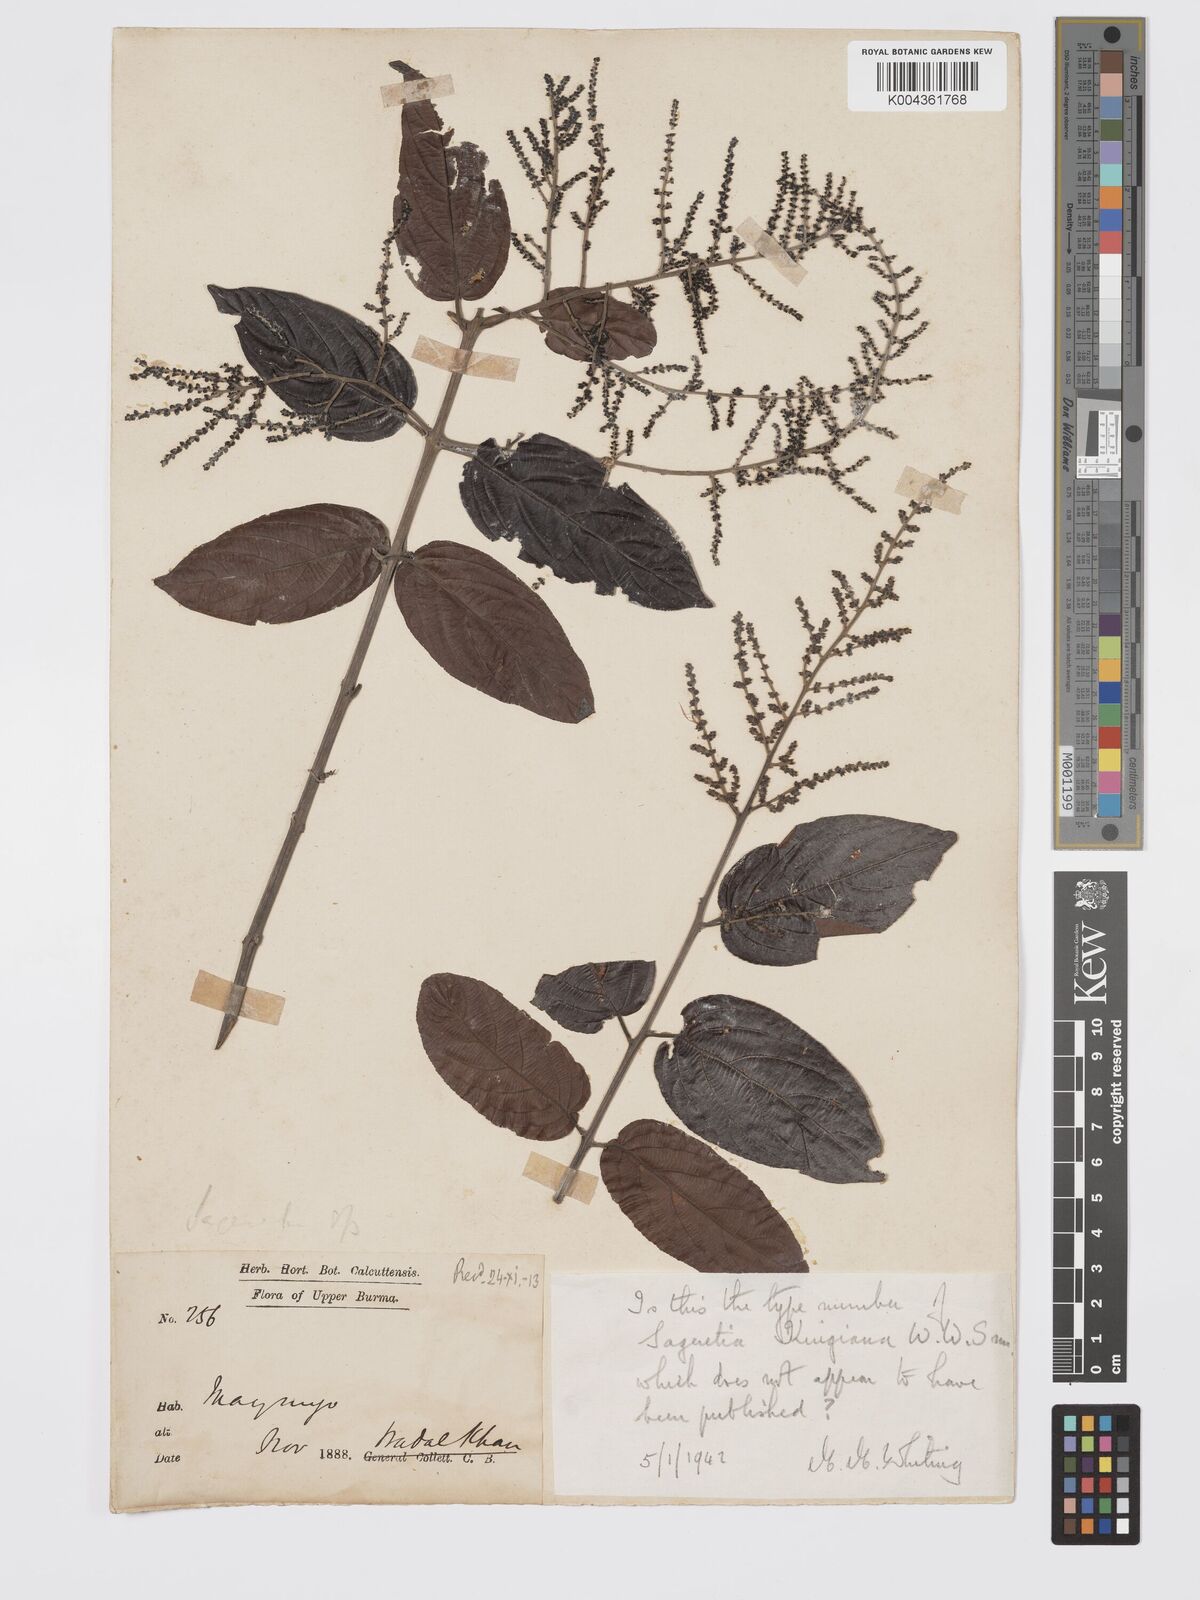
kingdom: Plantae
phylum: Tracheophyta
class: Magnoliopsida
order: Rosales
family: Rhamnaceae
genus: Sageretia
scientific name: Sageretia filiformis
